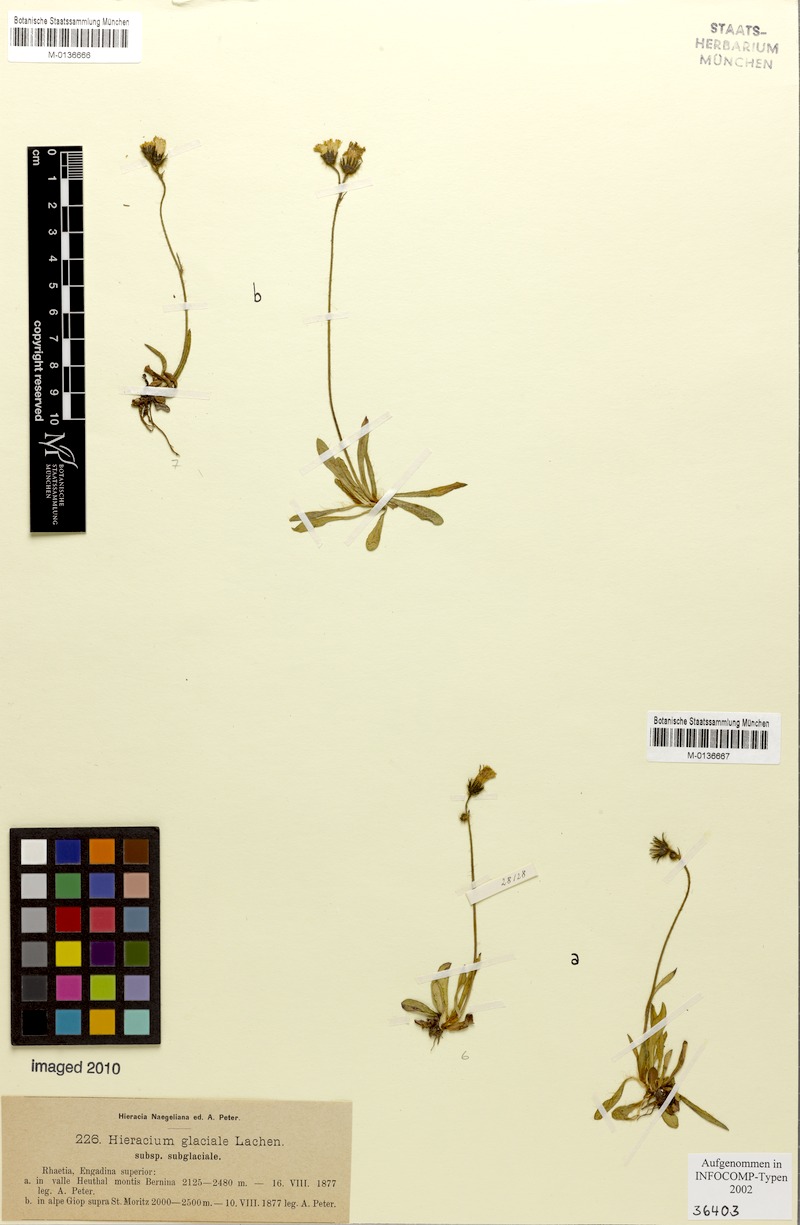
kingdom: Plantae
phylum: Tracheophyta
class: Magnoliopsida
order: Asterales
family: Asteraceae
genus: Pilosella
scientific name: Pilosella glacialis
